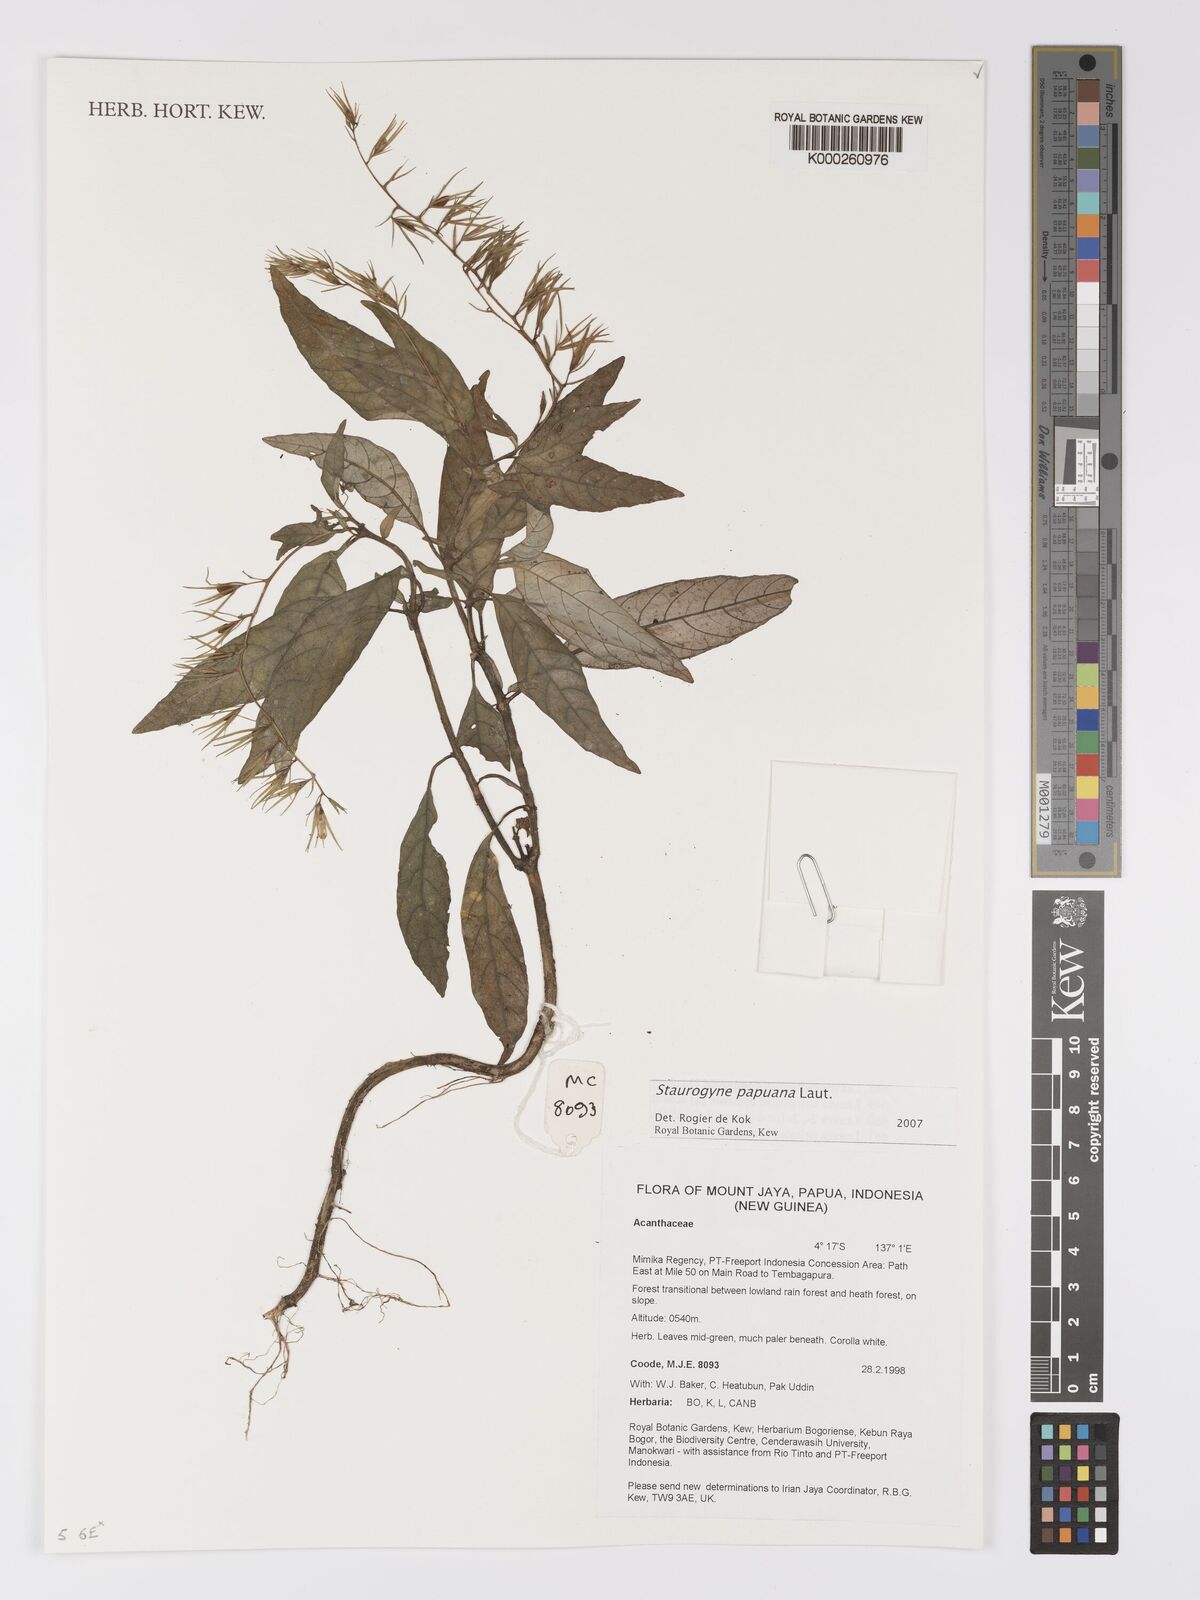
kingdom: Plantae
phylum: Tracheophyta
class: Magnoliopsida
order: Lamiales
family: Acanthaceae
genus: Staurogyne
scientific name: Staurogyne papuana
